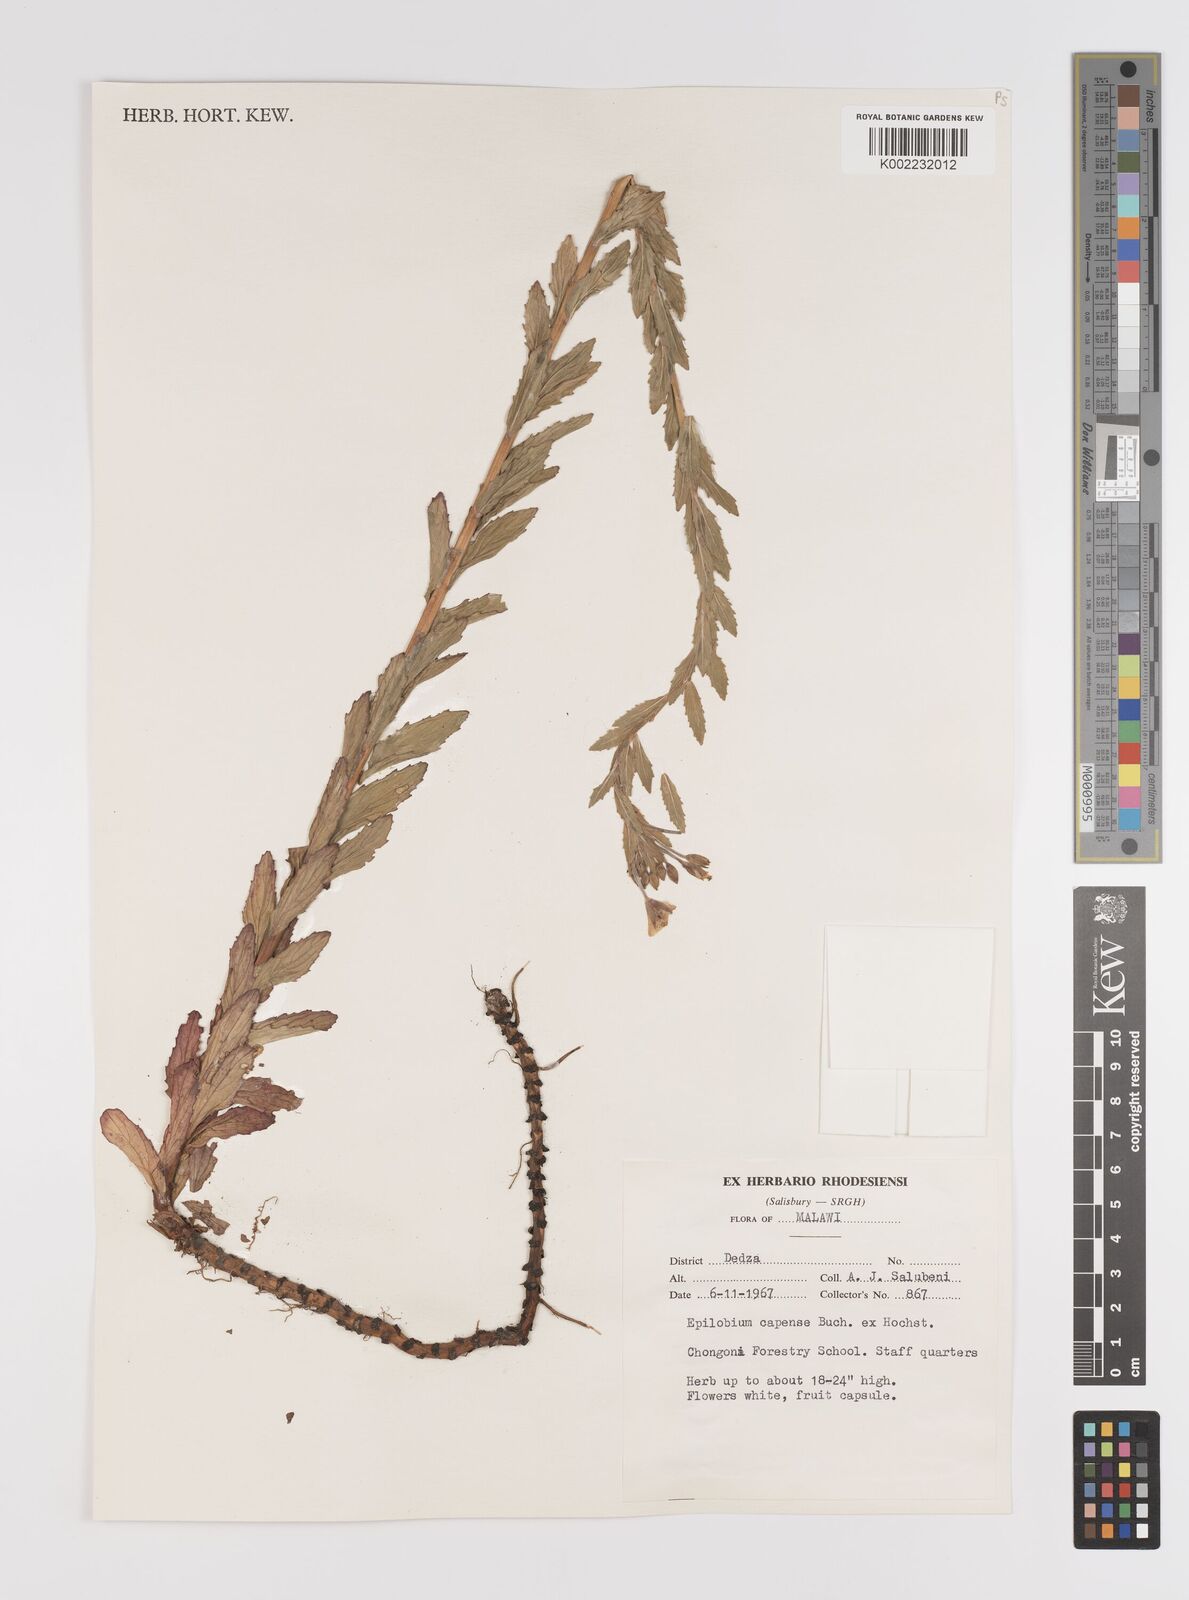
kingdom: Plantae
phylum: Tracheophyta
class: Magnoliopsida
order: Myrtales
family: Onagraceae
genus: Epilobium
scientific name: Epilobium capense
